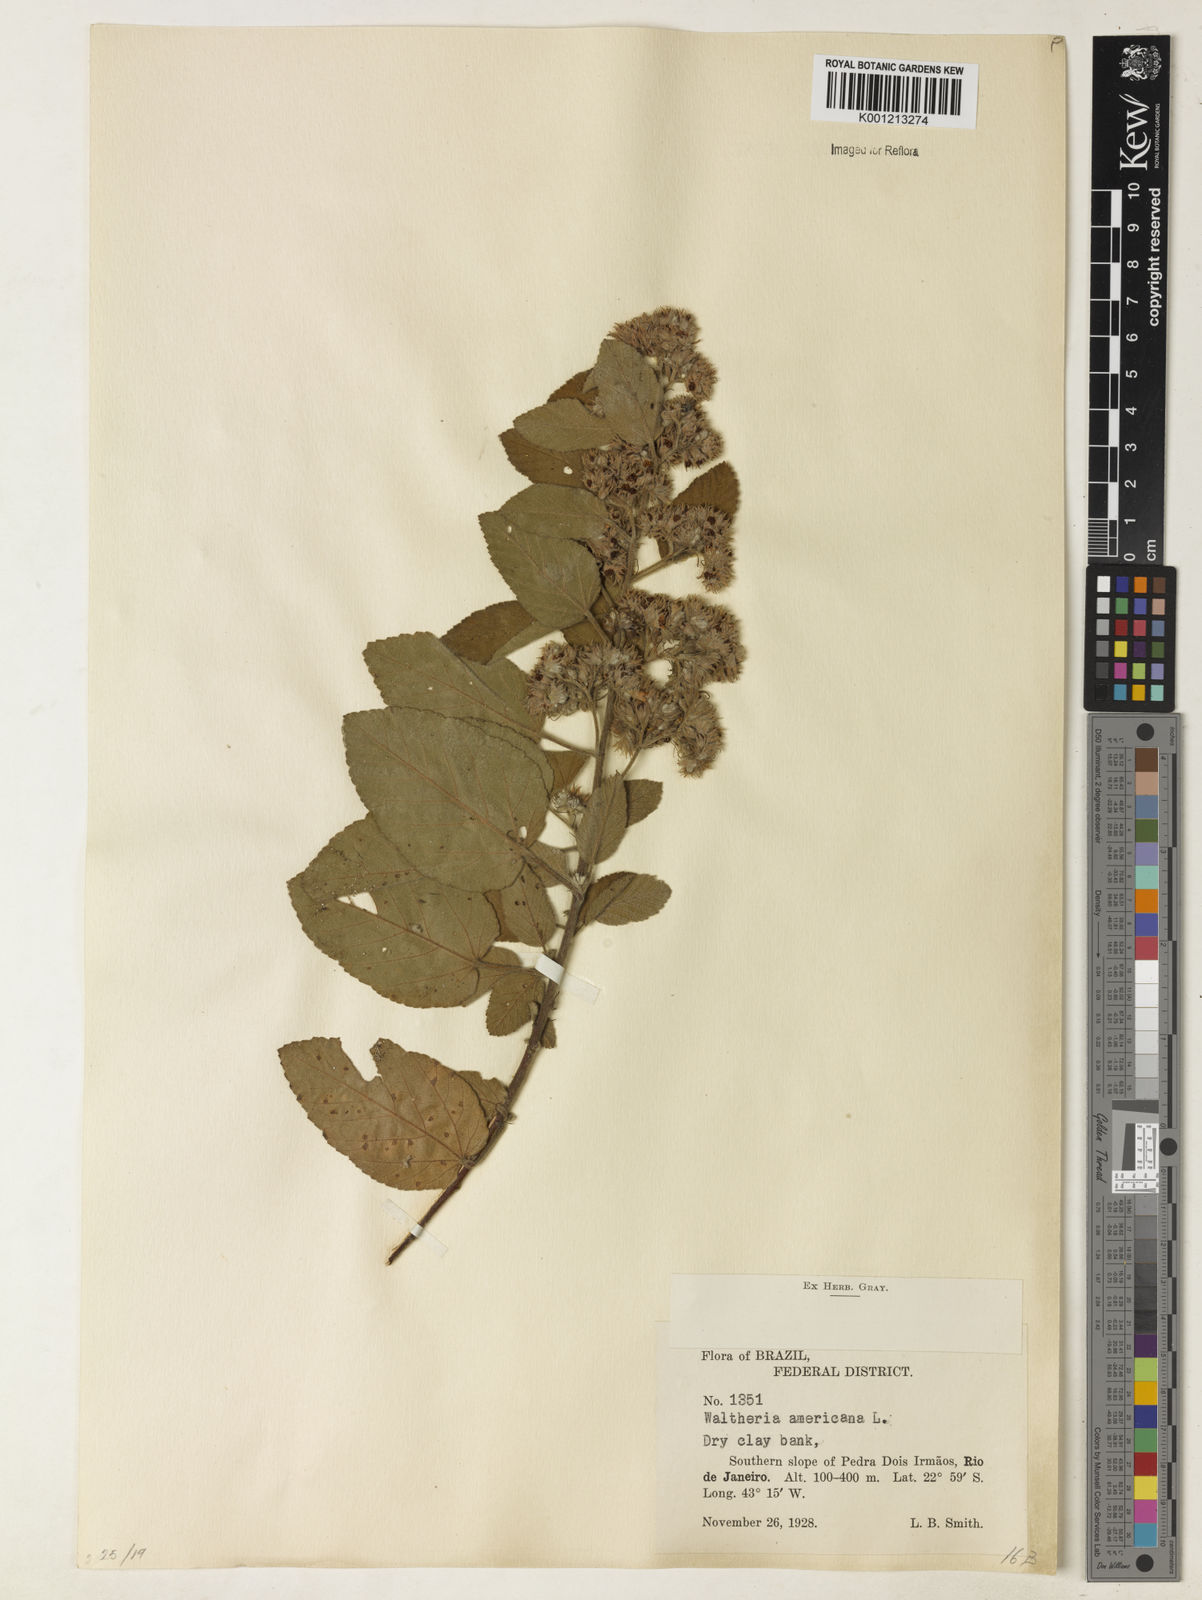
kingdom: Plantae
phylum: Tracheophyta
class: Magnoliopsida
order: Malvales
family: Malvaceae
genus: Waltheria
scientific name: Waltheria indica
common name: Leather-coat
